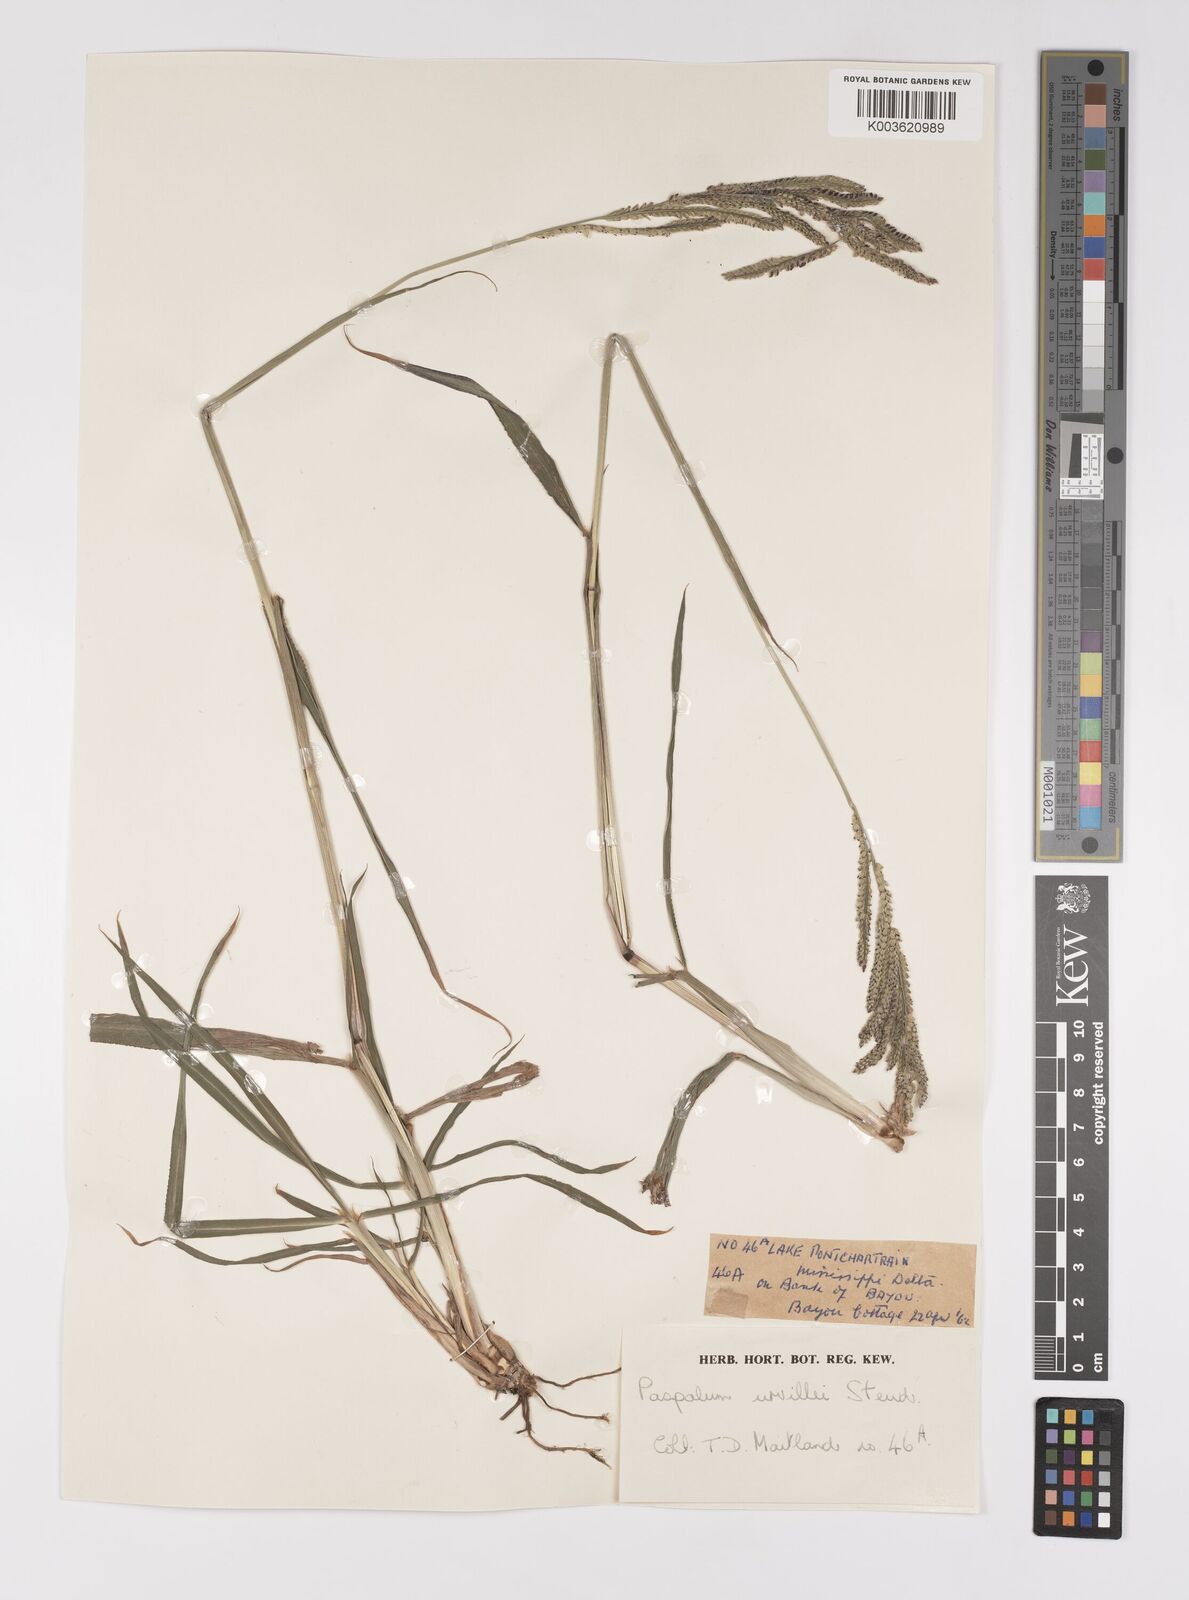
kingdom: Plantae
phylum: Tracheophyta
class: Liliopsida
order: Poales
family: Poaceae
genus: Paspalum
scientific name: Paspalum urvillei
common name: Vasey's grass
